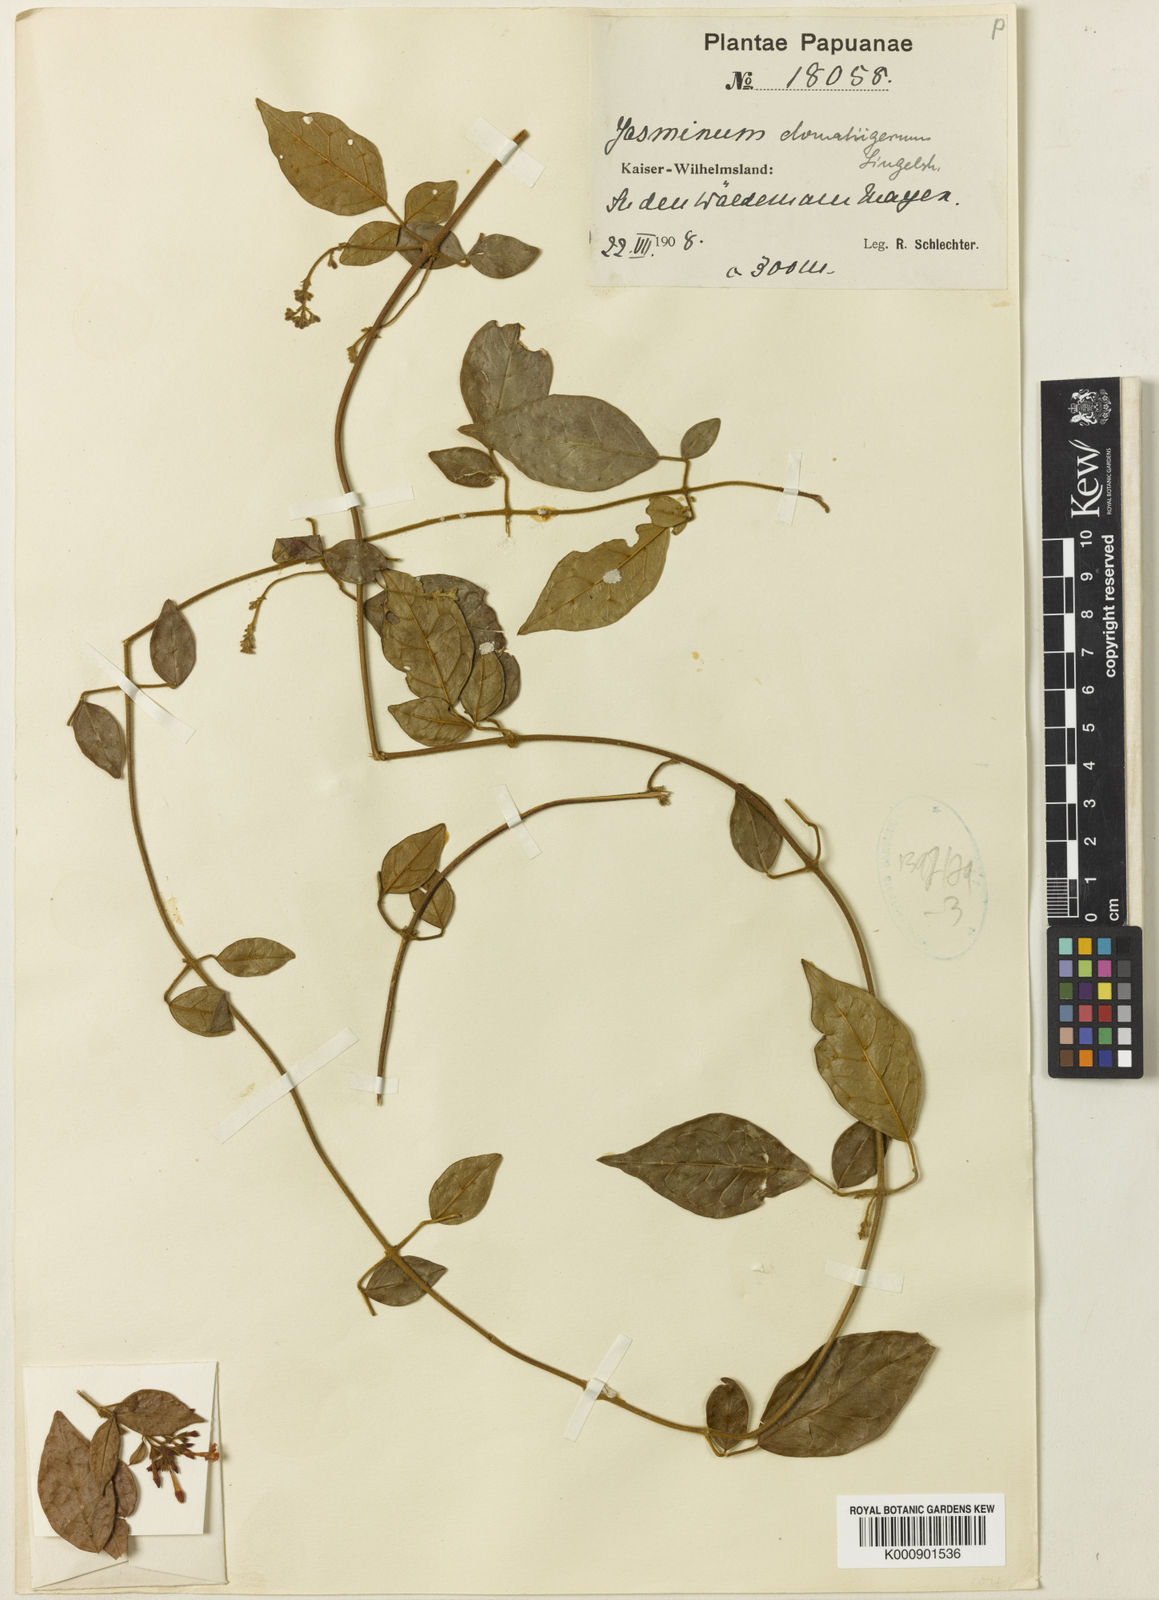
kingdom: Plantae
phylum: Tracheophyta
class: Magnoliopsida
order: Lamiales
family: Oleaceae
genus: Jasminum
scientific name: Jasminum domatiigerum
